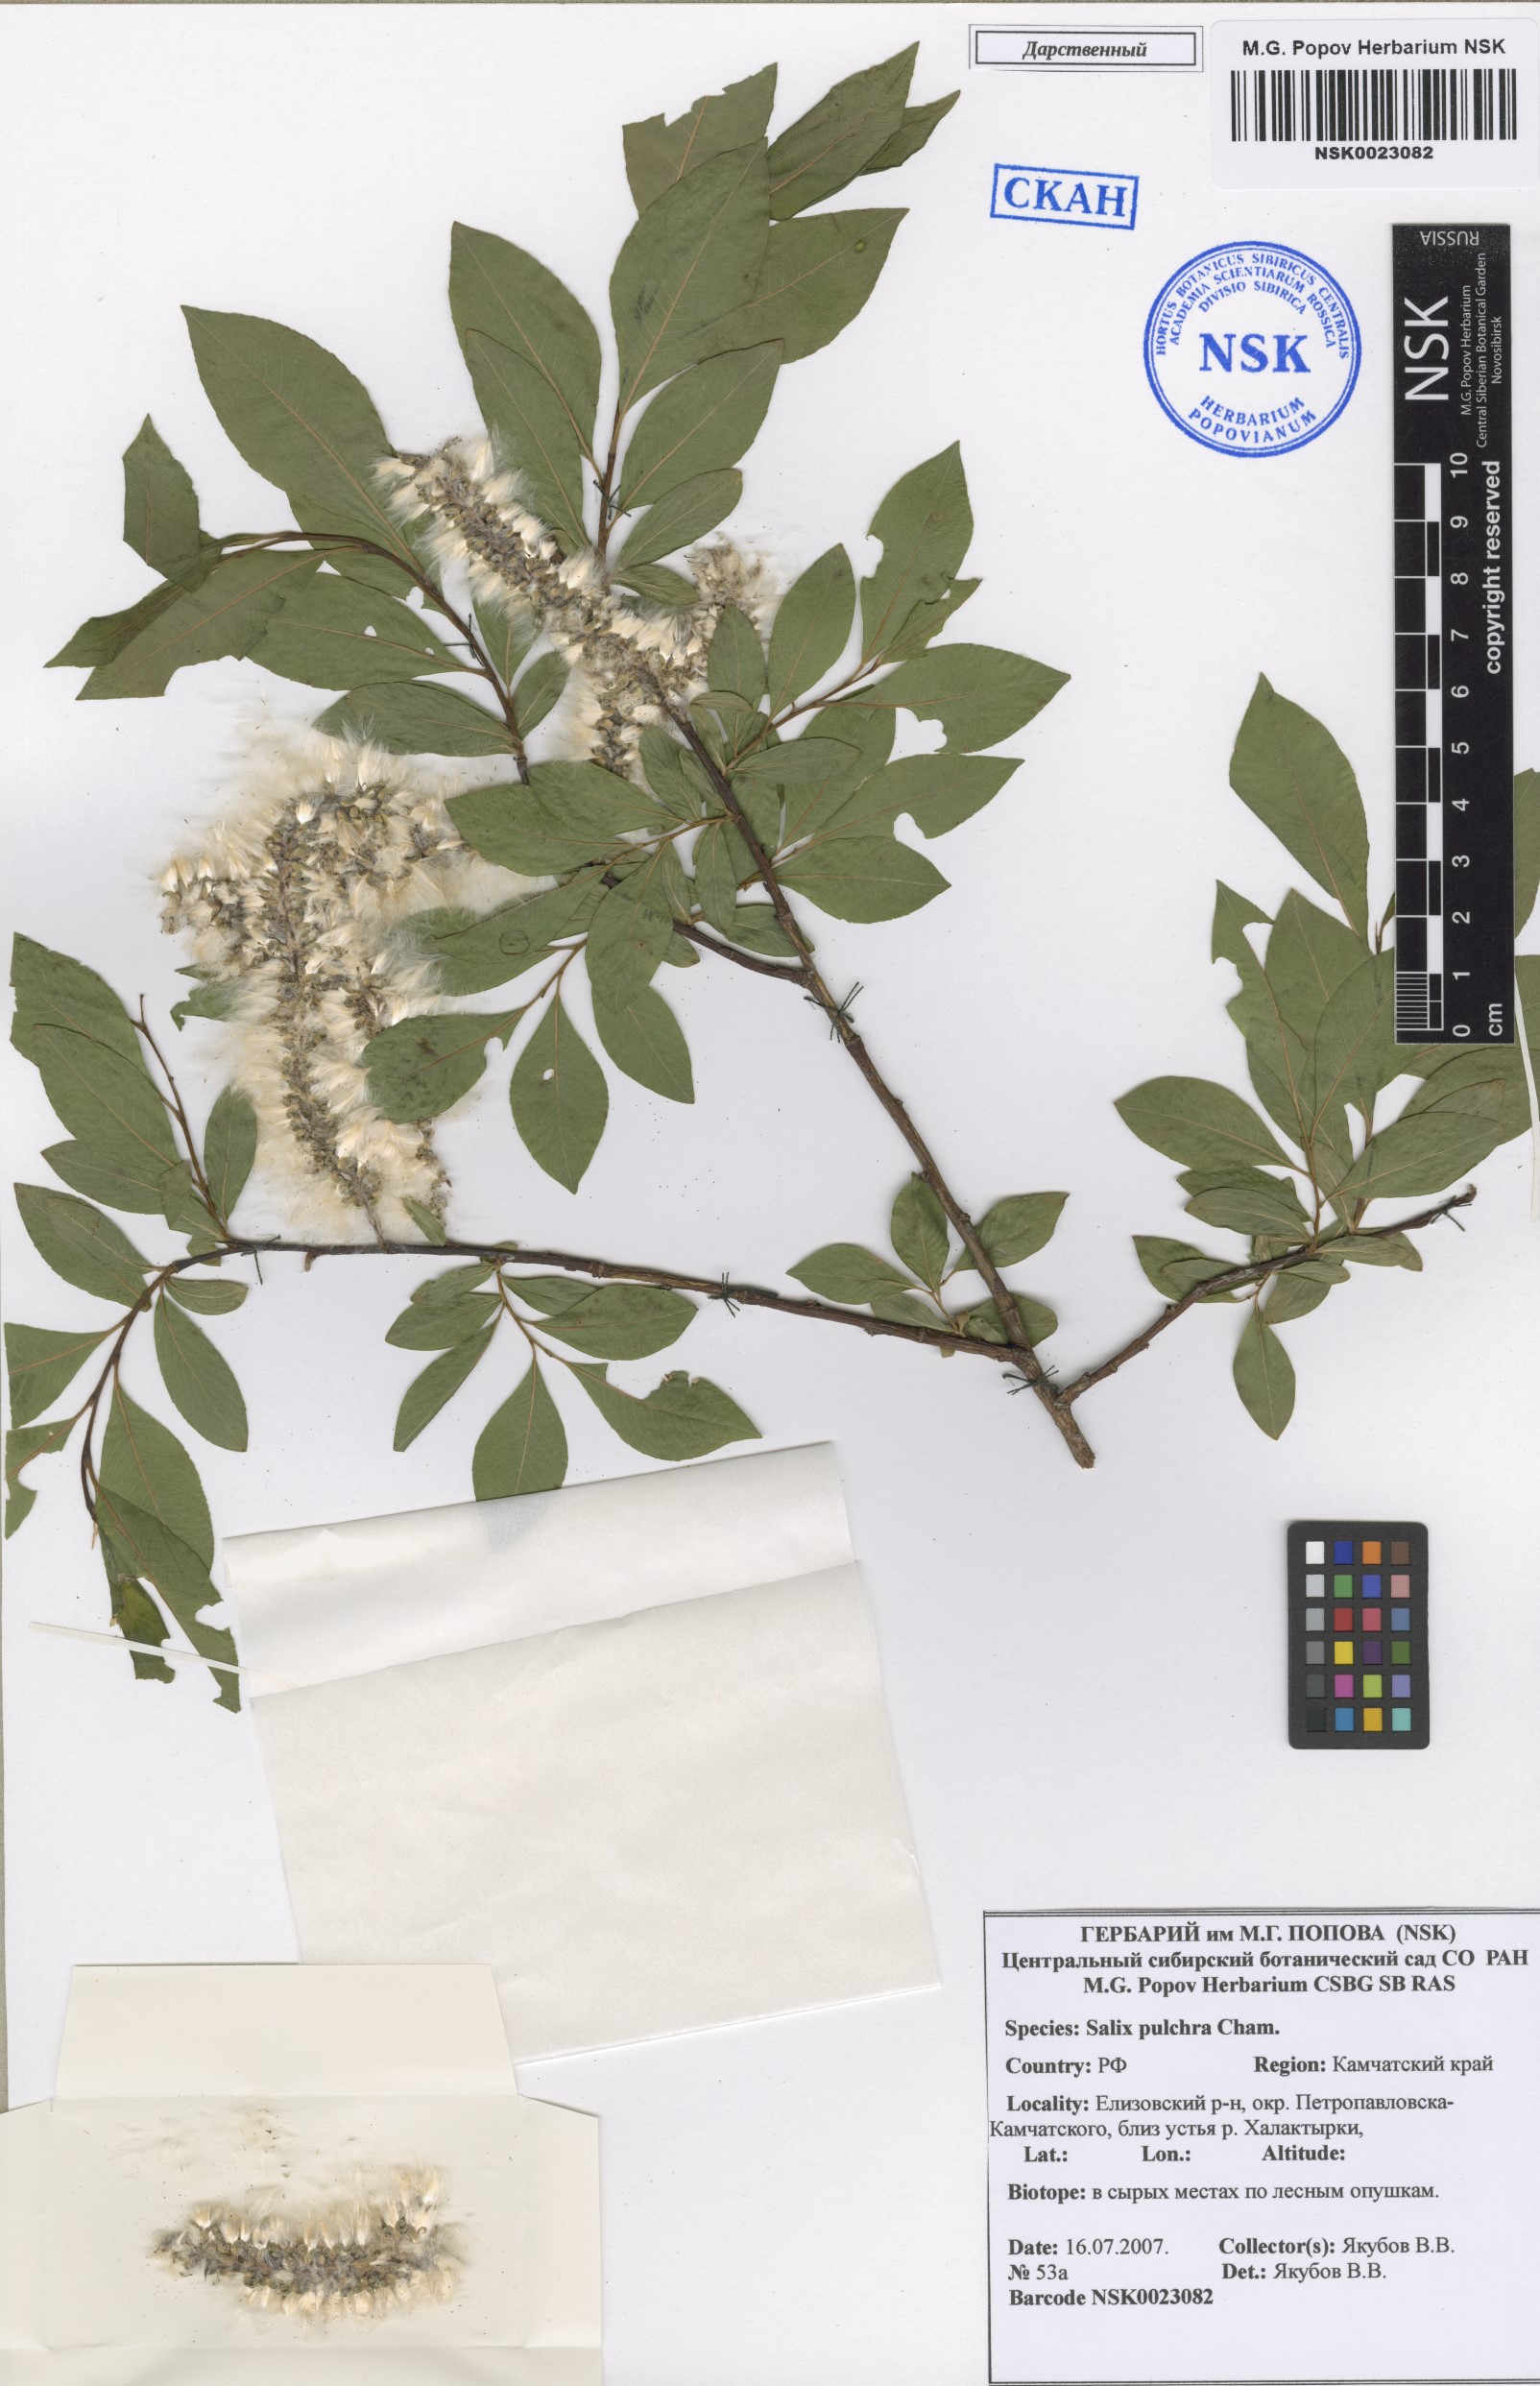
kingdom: Plantae
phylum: Tracheophyta
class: Magnoliopsida
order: Malpighiales
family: Salicaceae
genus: Salix
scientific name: Salix pulchra
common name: Diamond-leaved willow
